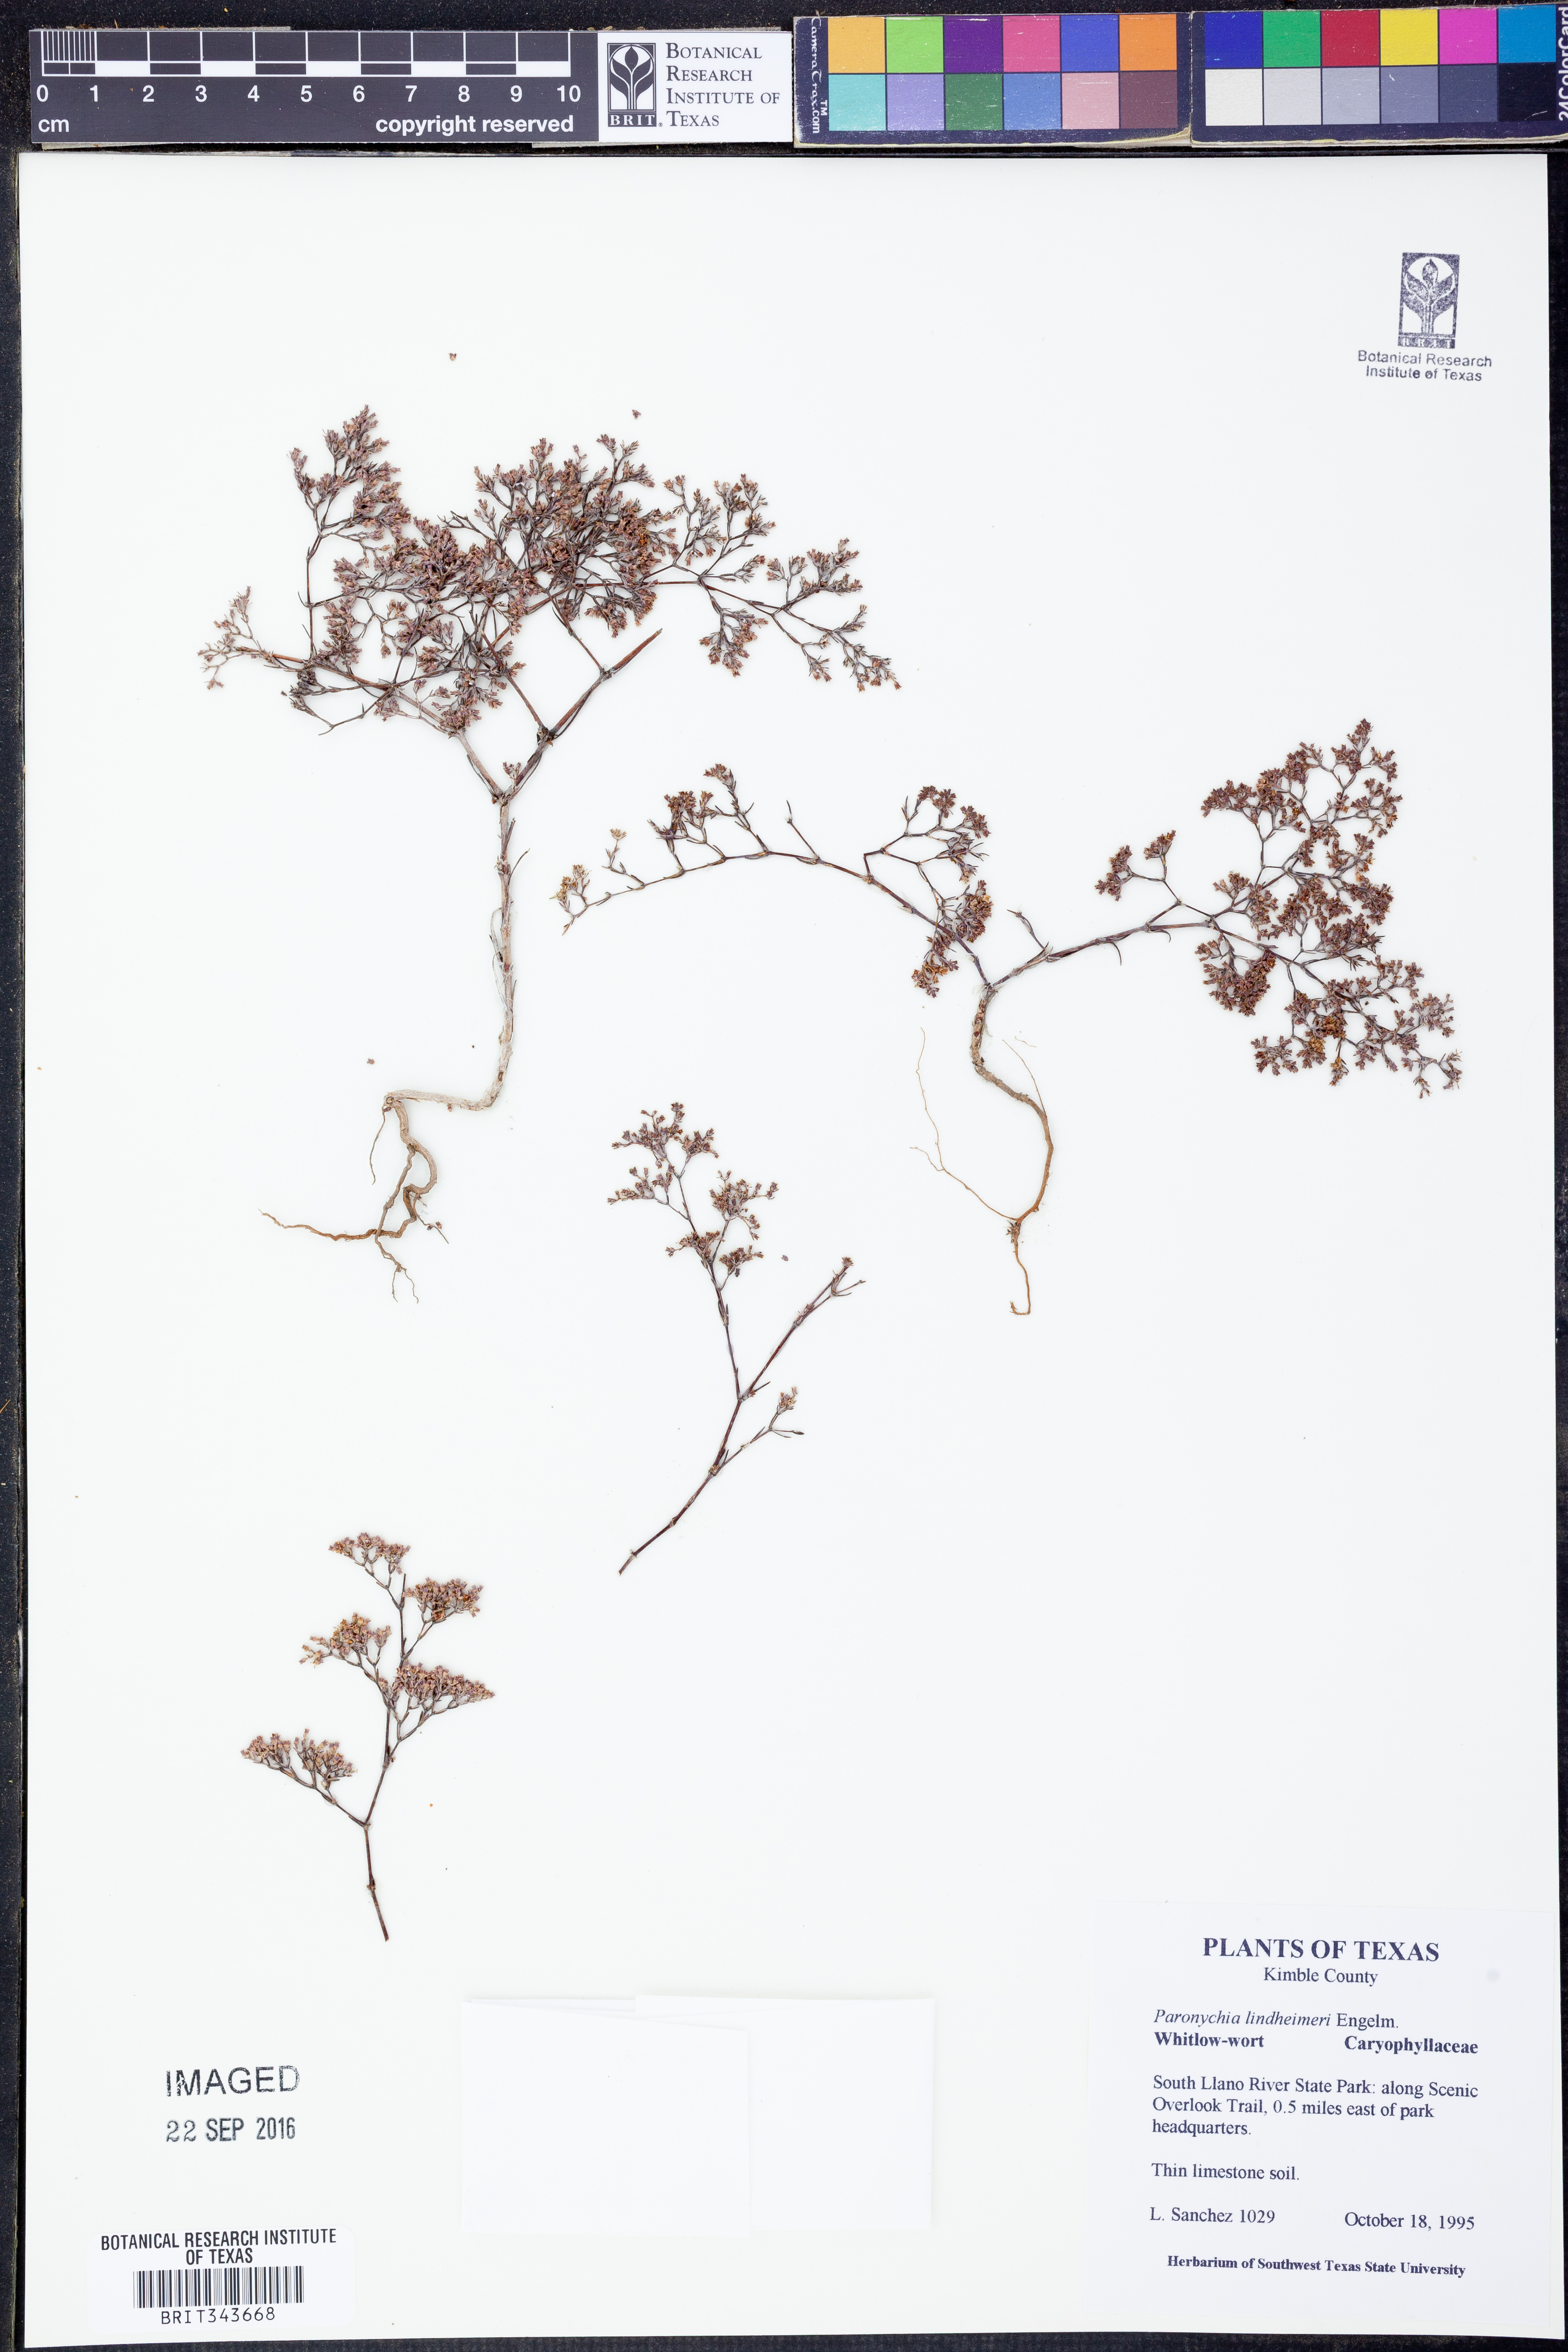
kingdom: Plantae
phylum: Tracheophyta
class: Magnoliopsida
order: Caryophyllales
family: Caryophyllaceae
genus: Paronychia
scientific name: Paronychia lindheimeri
